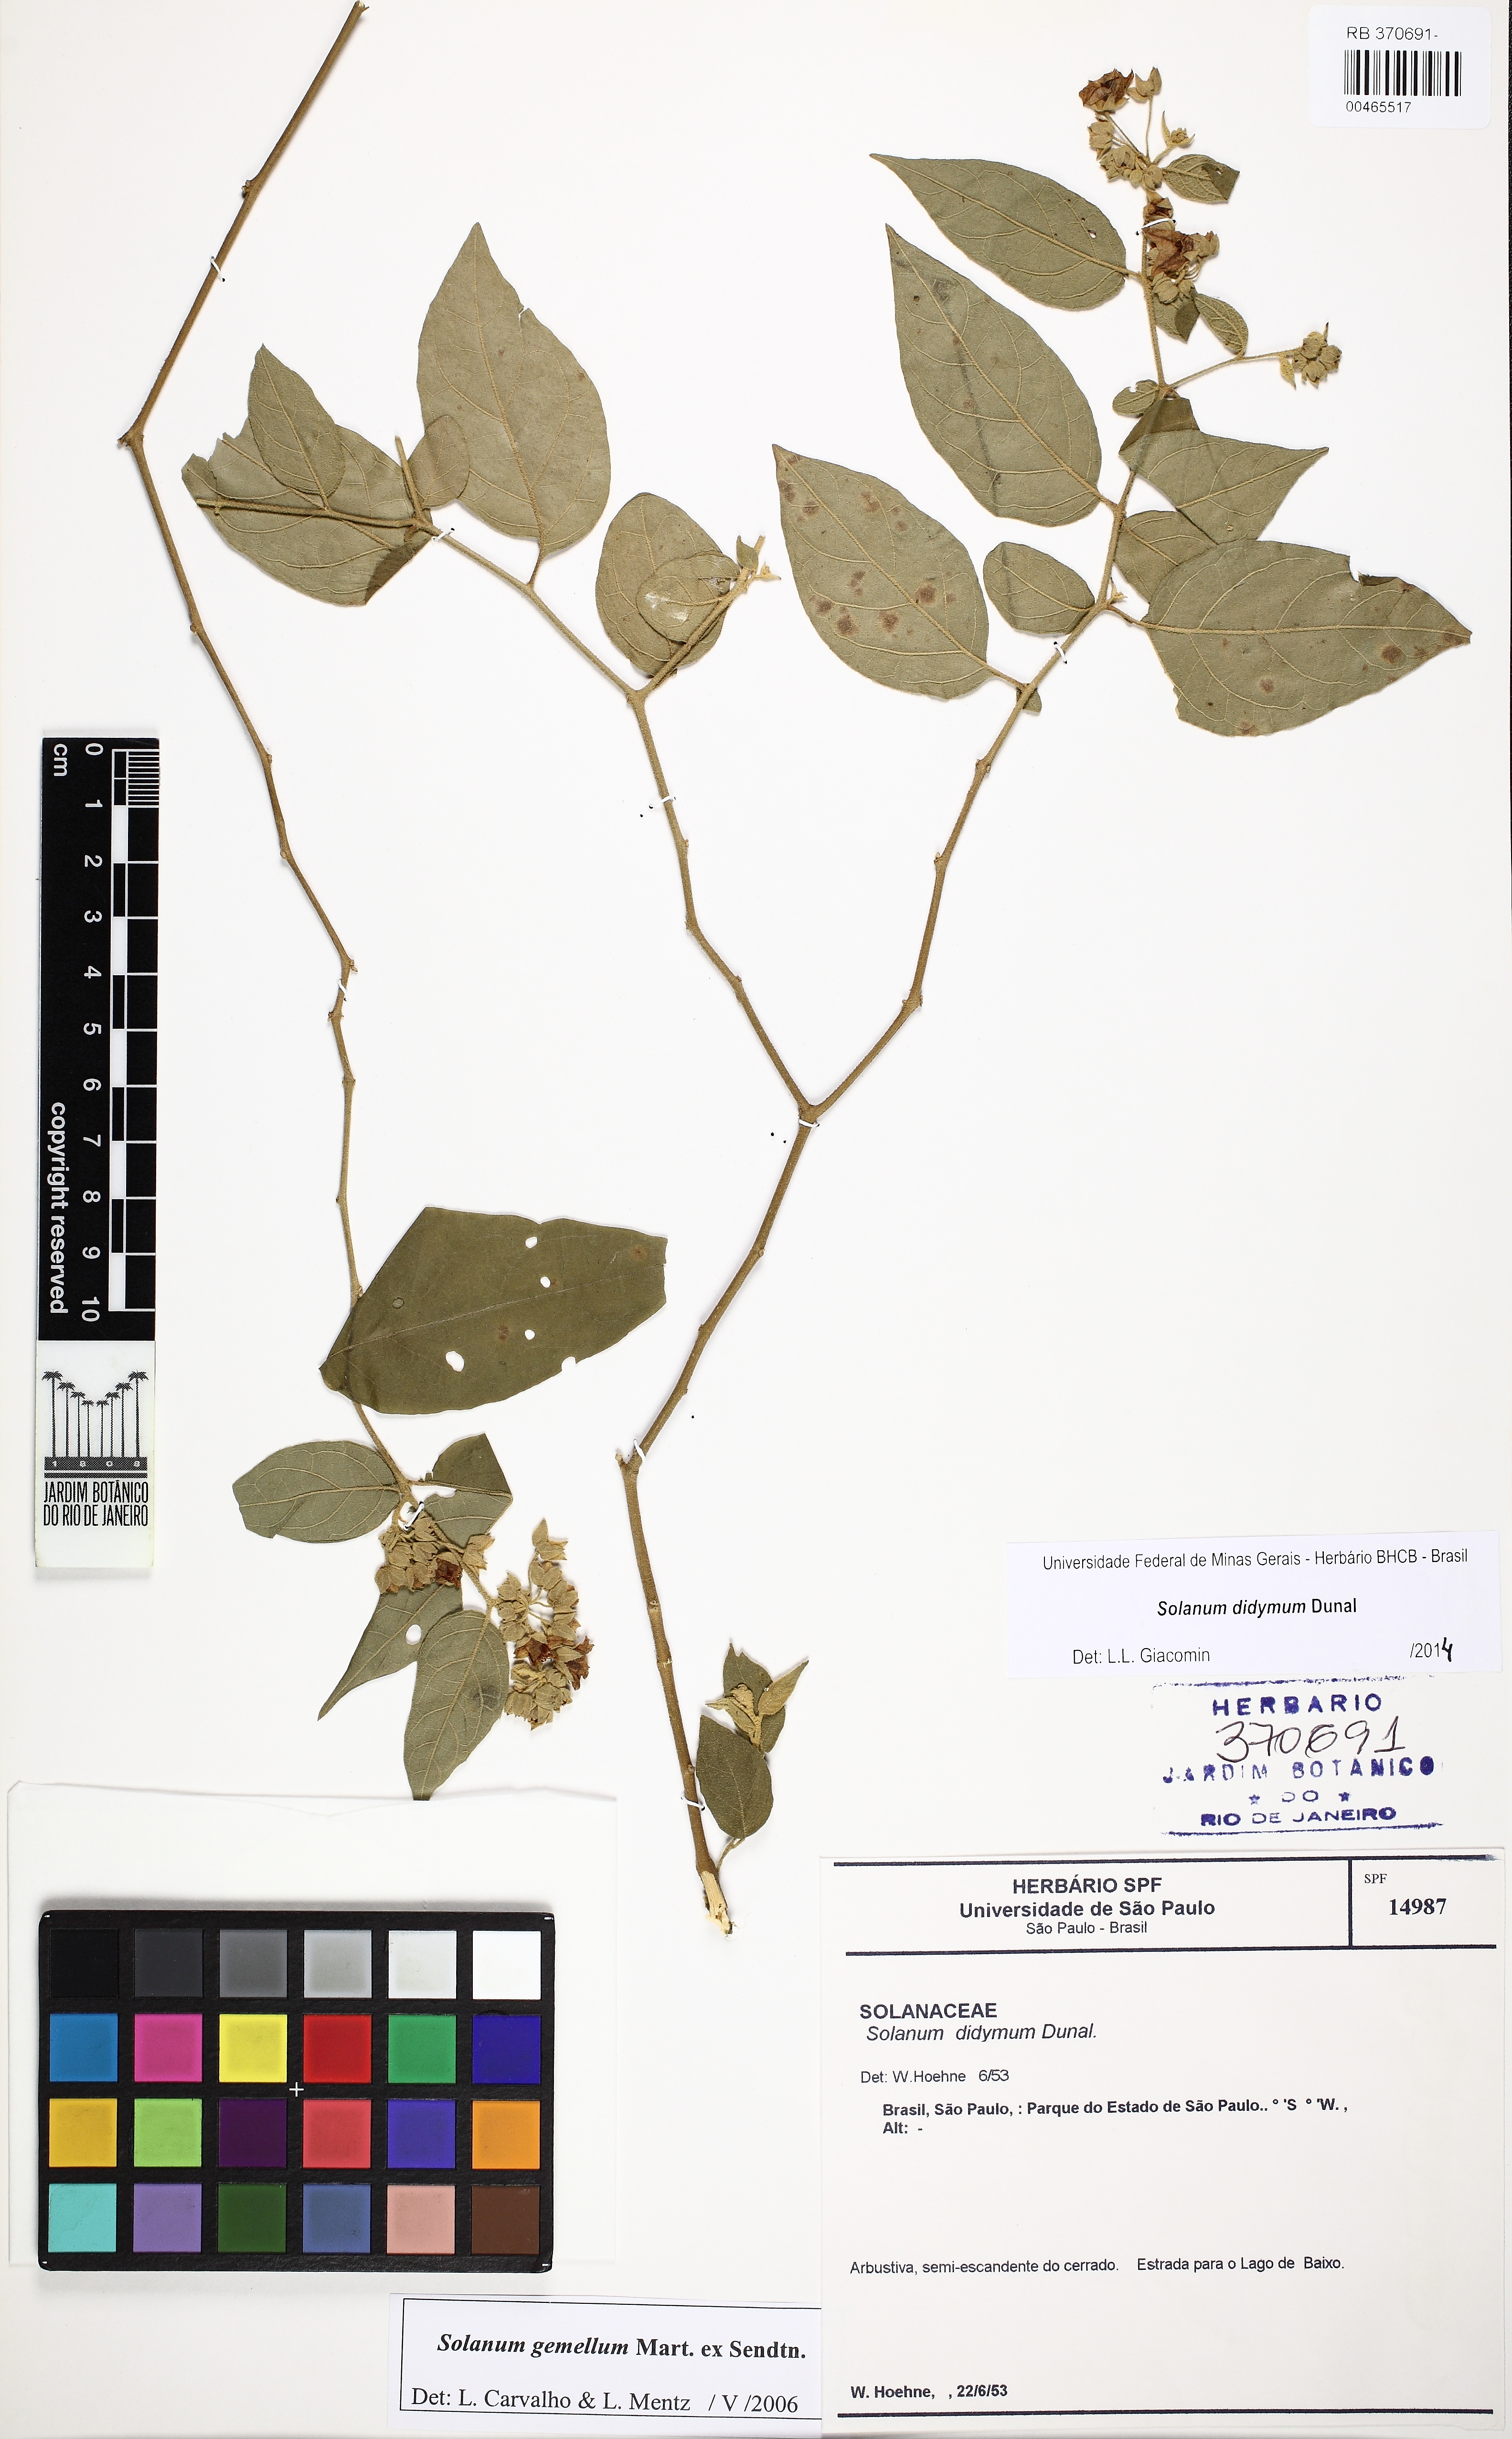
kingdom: Plantae
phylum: Tracheophyta
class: Magnoliopsida
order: Solanales
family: Solanaceae
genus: Solanum
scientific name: Solanum didymum
